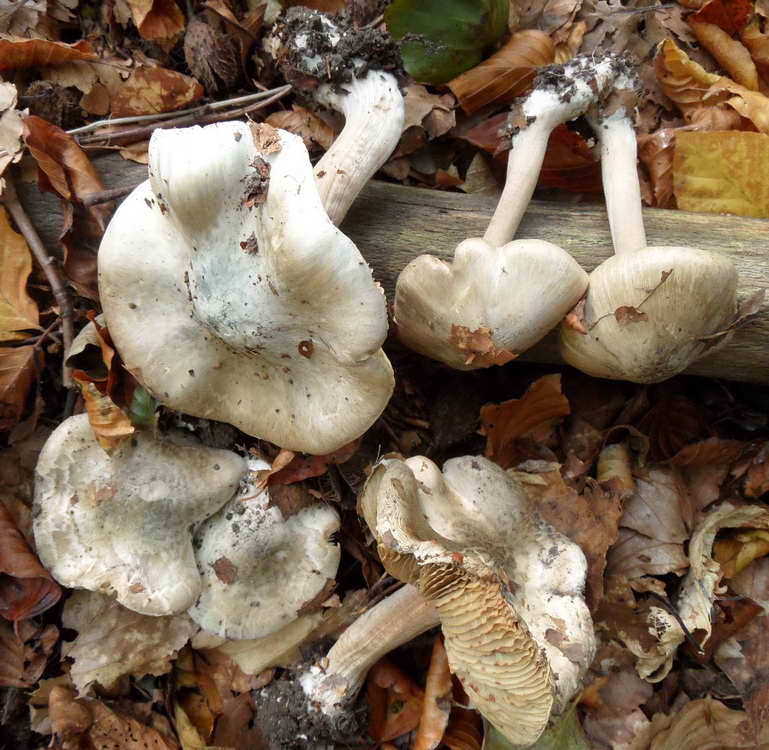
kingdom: Fungi
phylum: Basidiomycota
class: Agaricomycetes
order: Agaricales
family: Inocybaceae
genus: Inocybe
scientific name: Inocybe corydalina
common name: grønpuklet trævlhat
